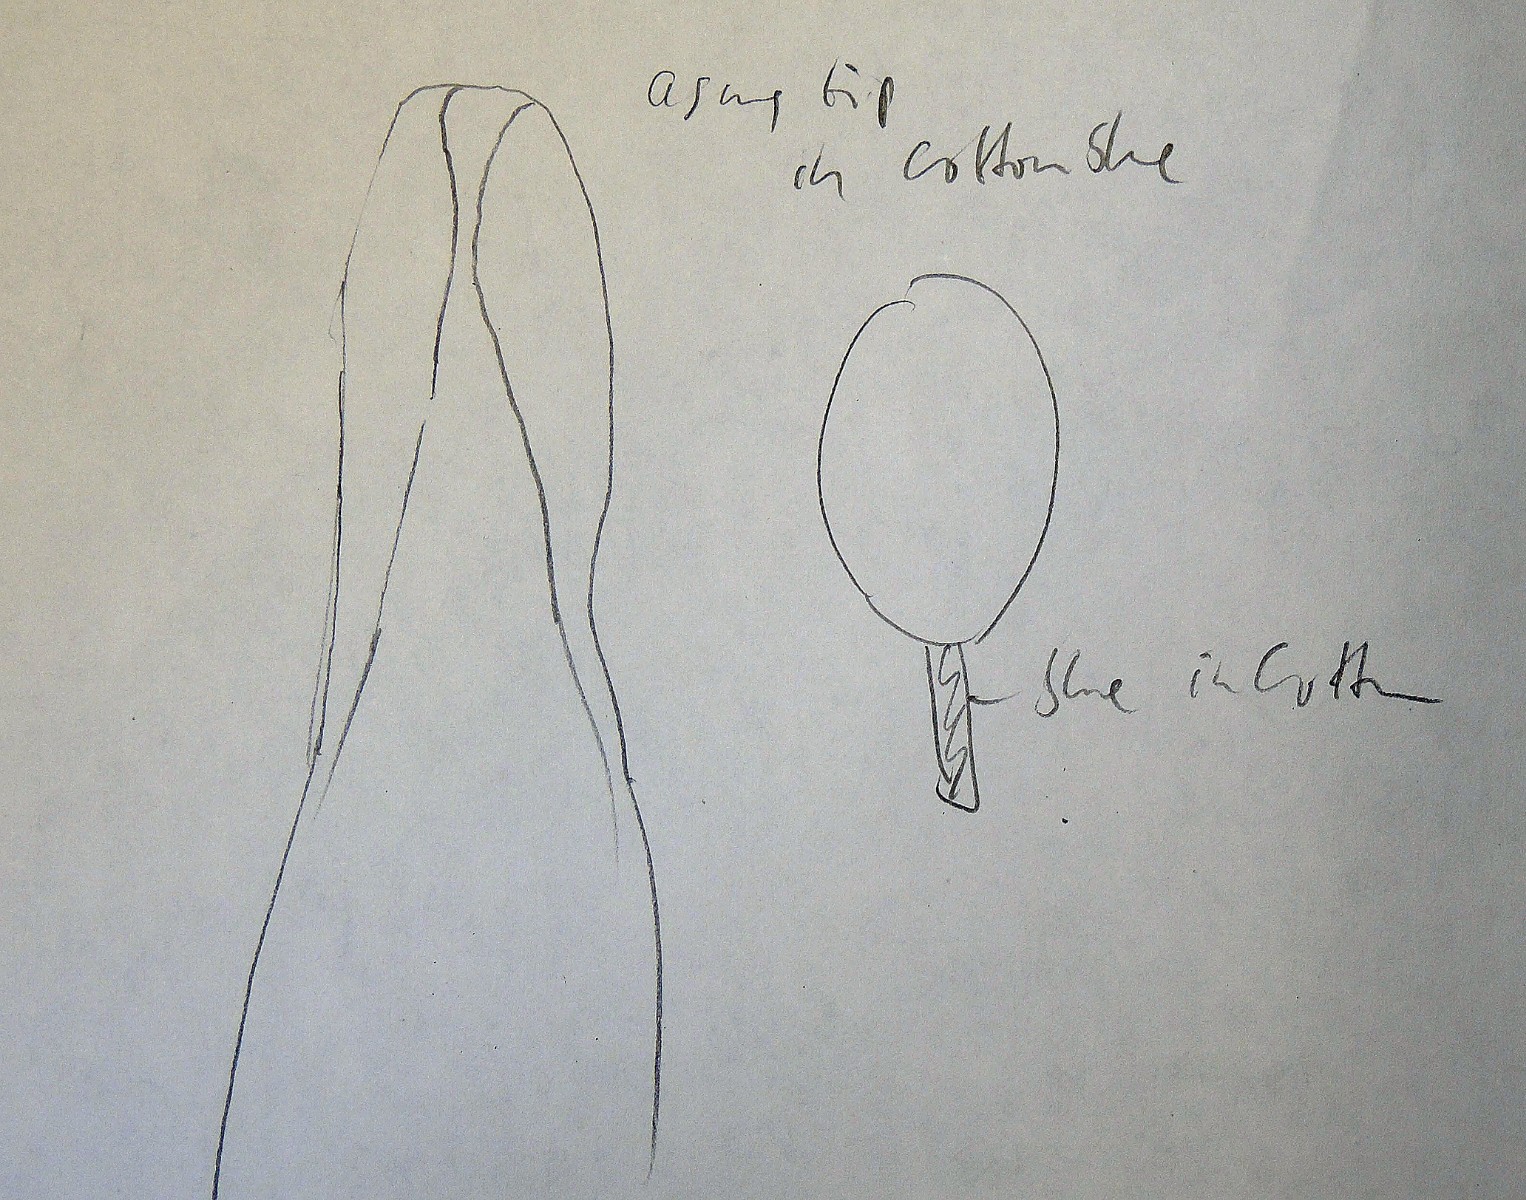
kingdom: Fungi
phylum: Ascomycota
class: Sordariomycetes
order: Sordariales
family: Neoschizotheciaceae
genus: Neoschizothecium
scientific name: Neoschizothecium glutinans
